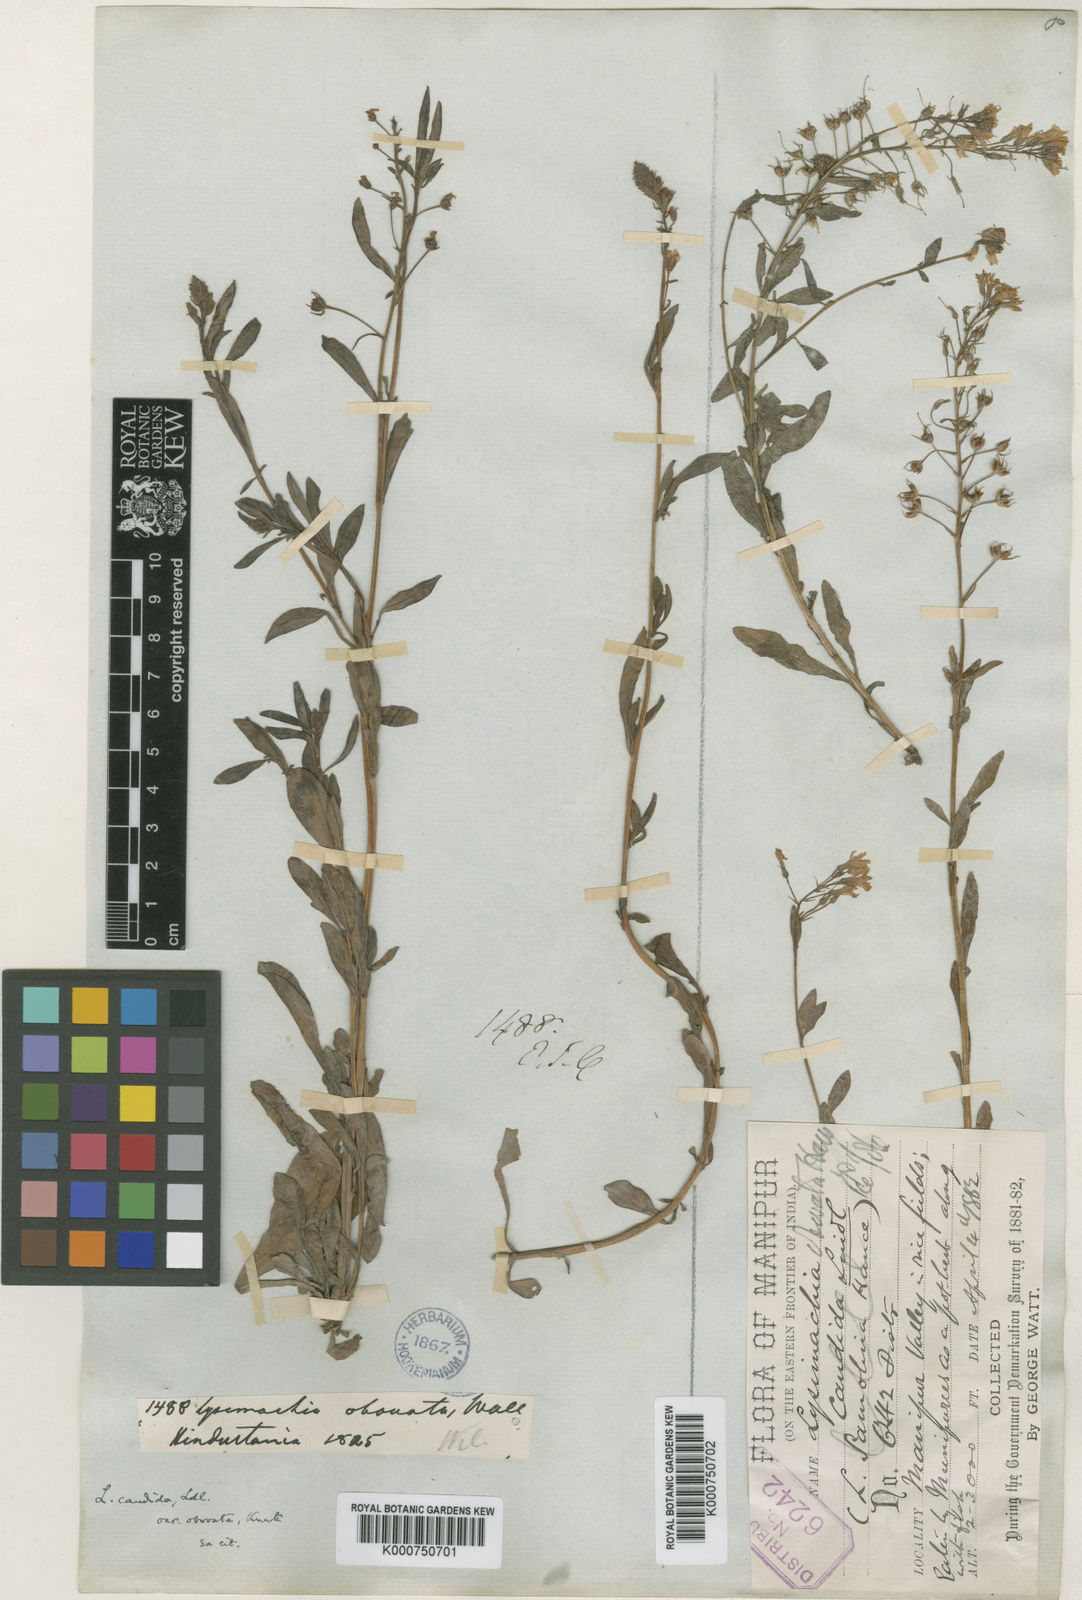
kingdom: Plantae
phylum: Tracheophyta
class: Magnoliopsida
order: Ericales
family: Primulaceae
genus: Lysimachia
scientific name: Lysimachia candida
